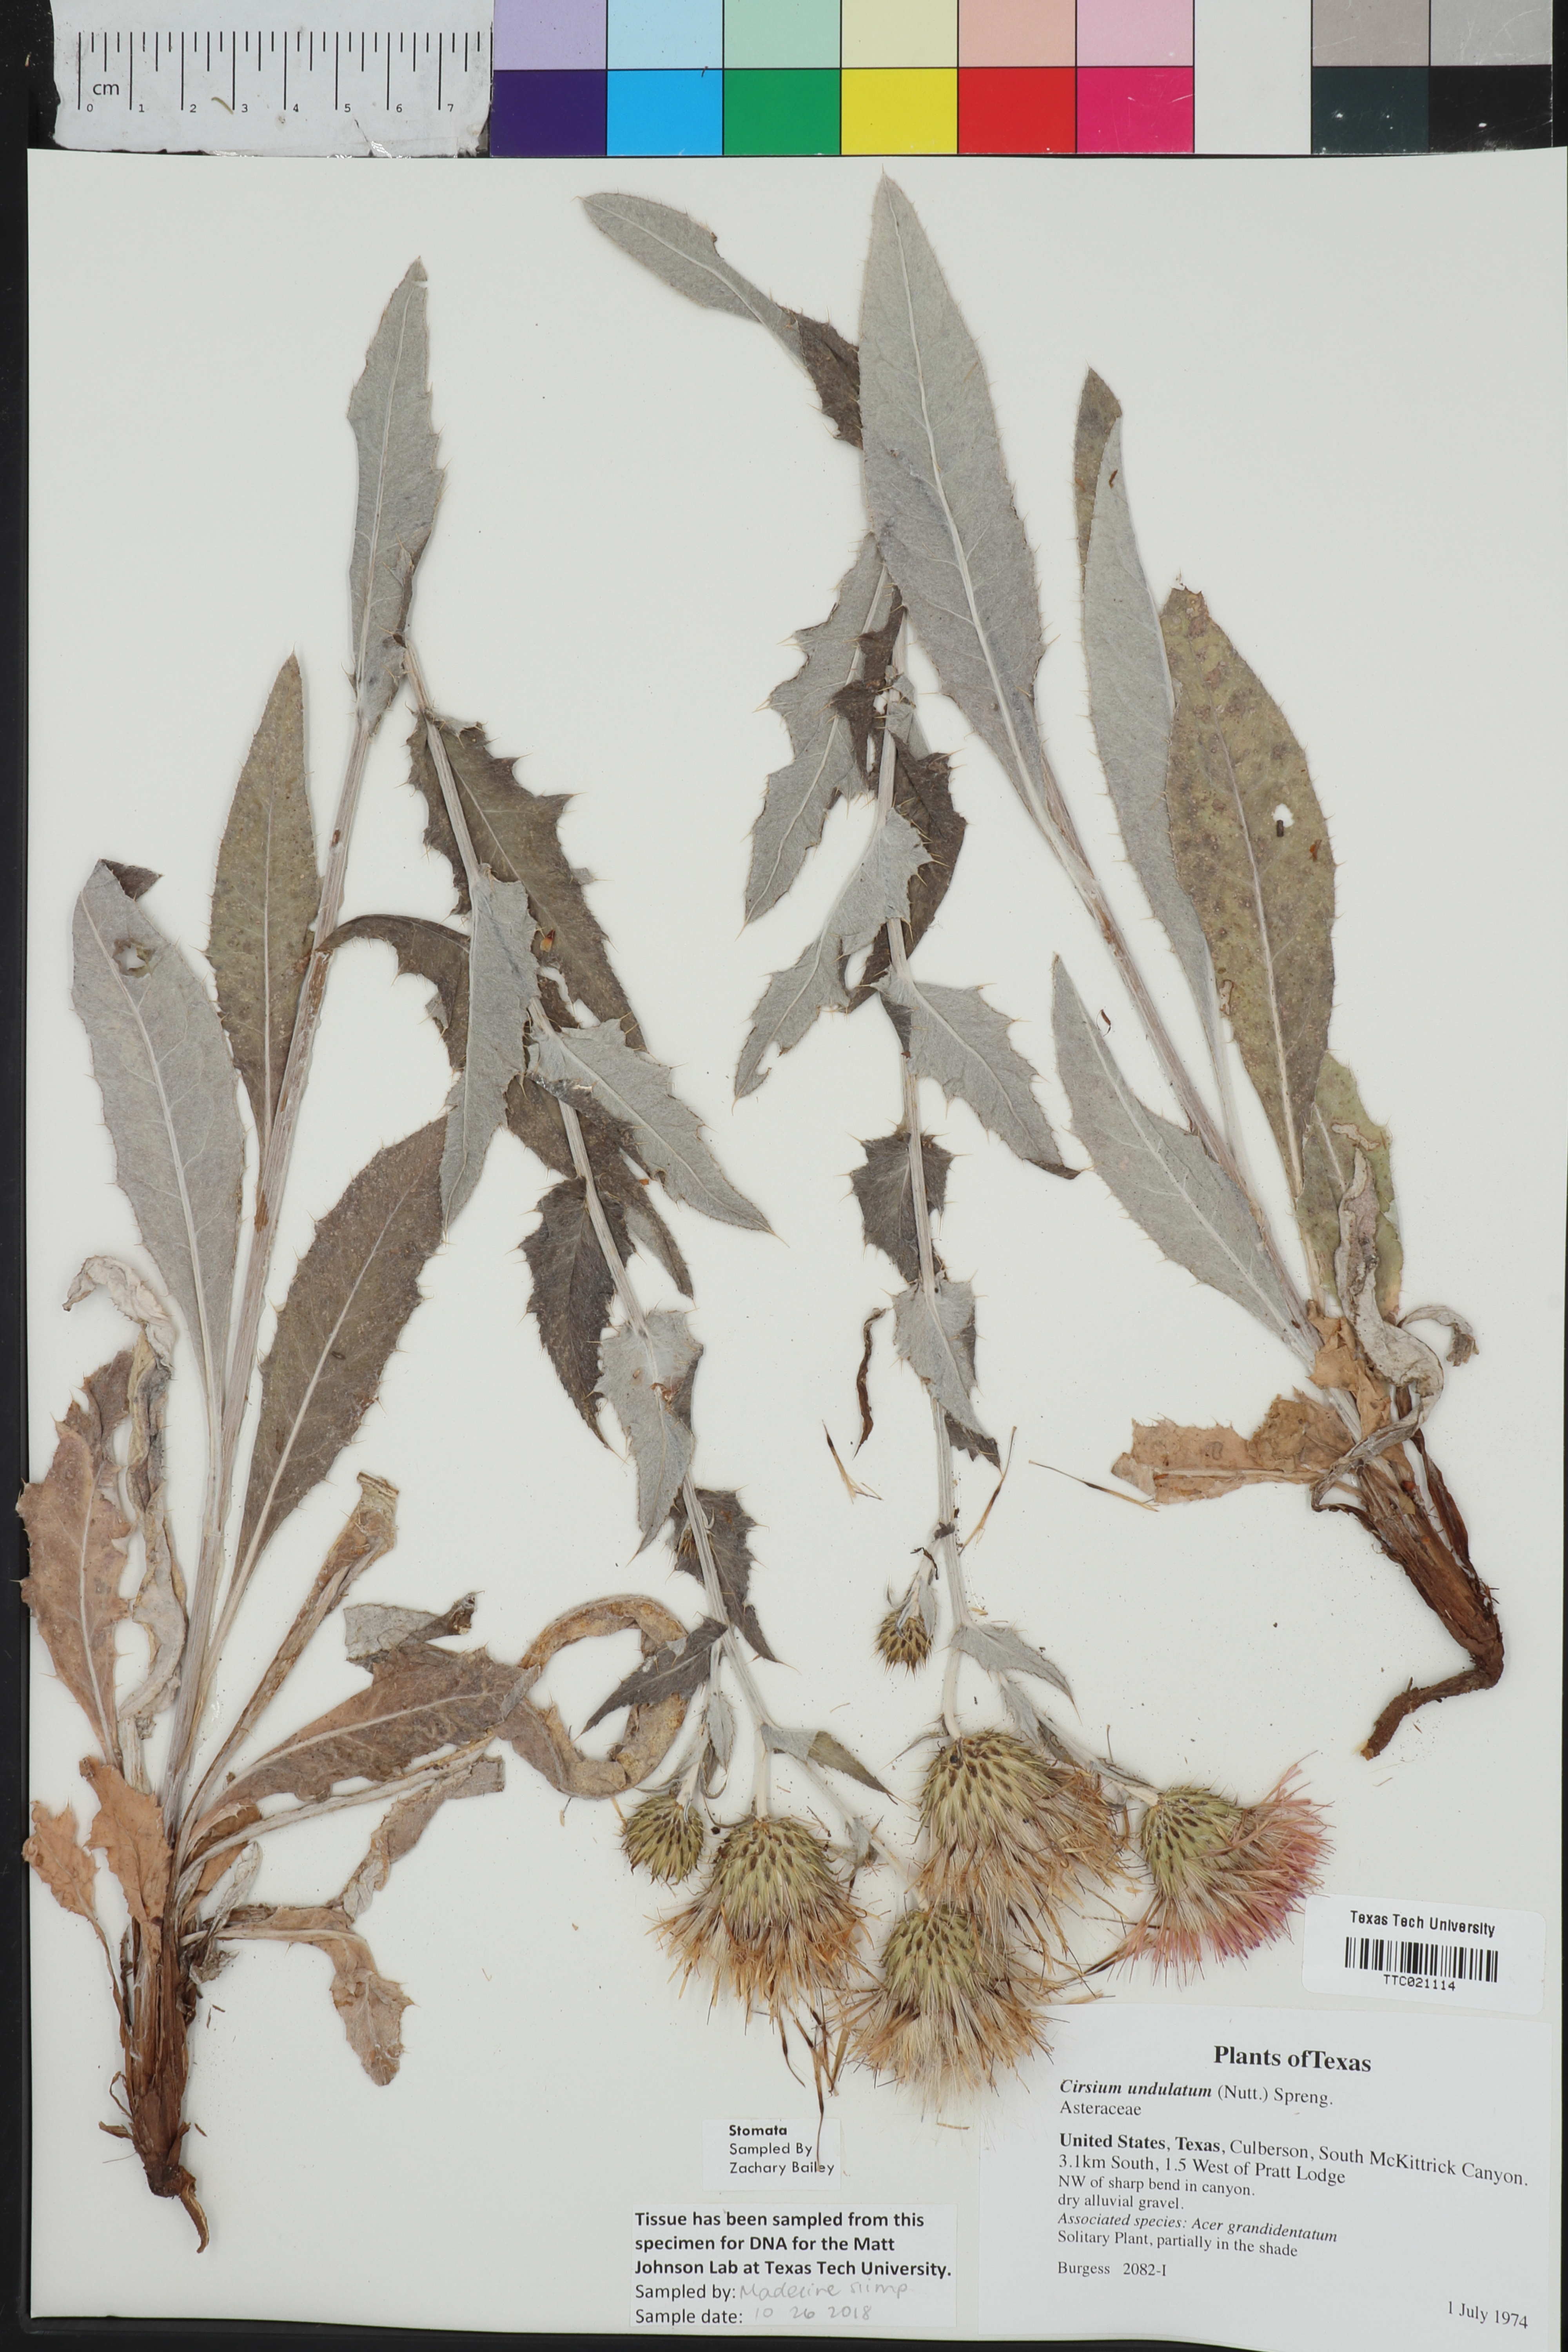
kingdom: Plantae
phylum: Tracheophyta
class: Magnoliopsida
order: Asterales
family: Asteraceae
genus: Cirsium
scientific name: Cirsium undulatum
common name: Pasture thistle
